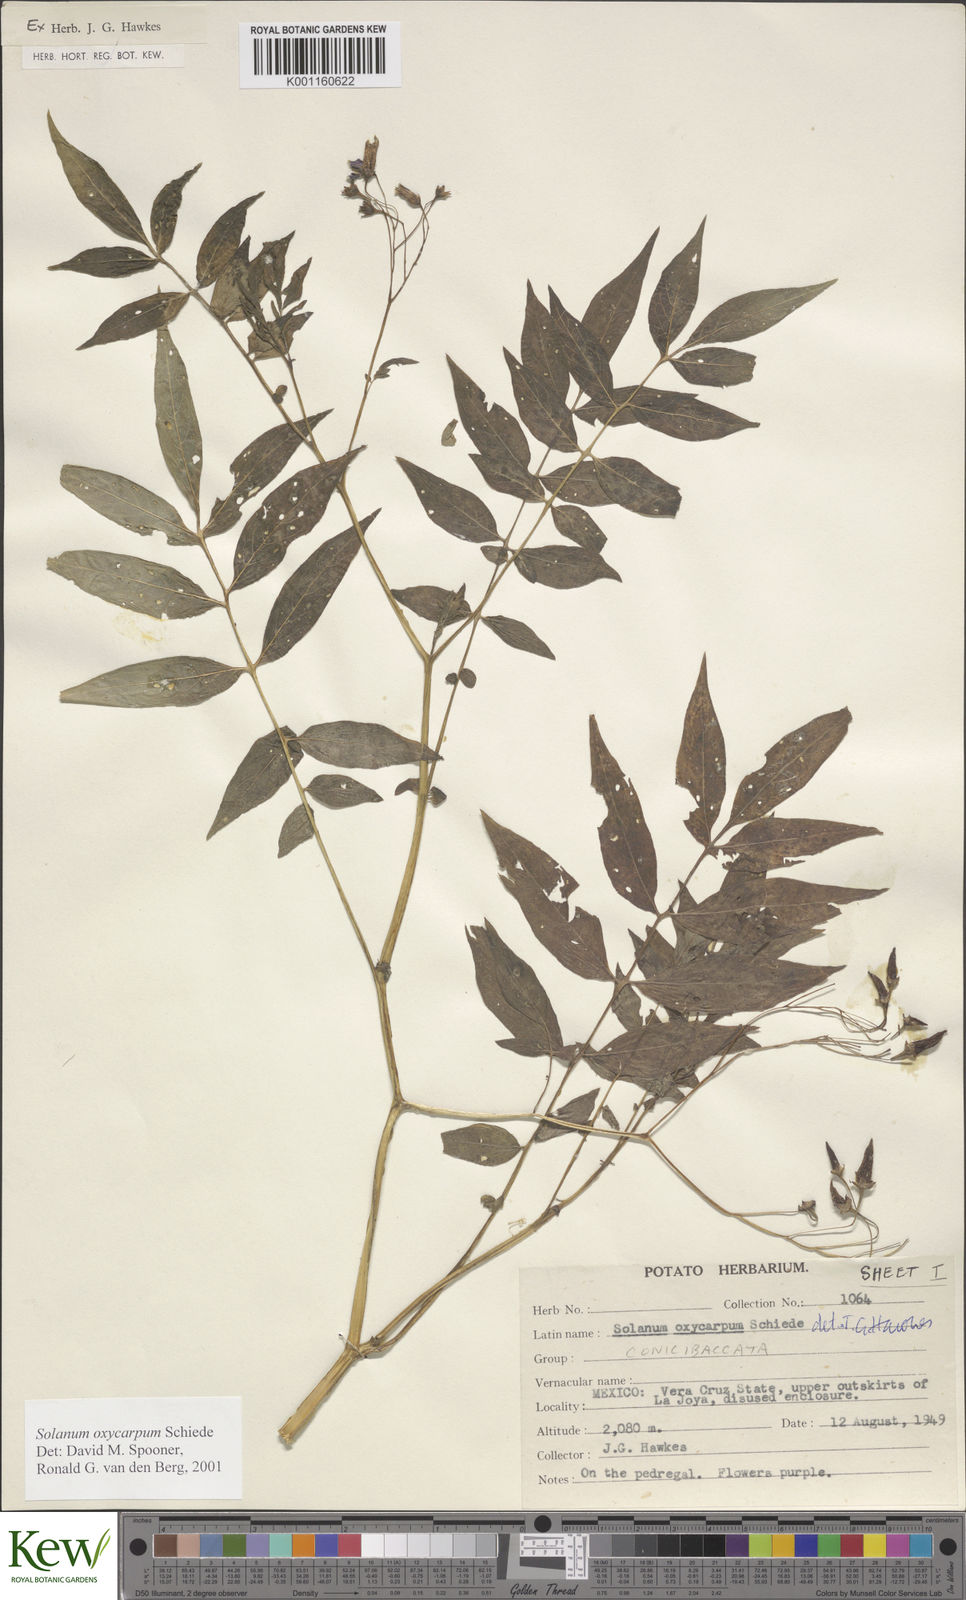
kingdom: Plantae
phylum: Tracheophyta
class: Magnoliopsida
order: Solanales
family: Solanaceae
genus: Solanum
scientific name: Solanum oxycarpum
